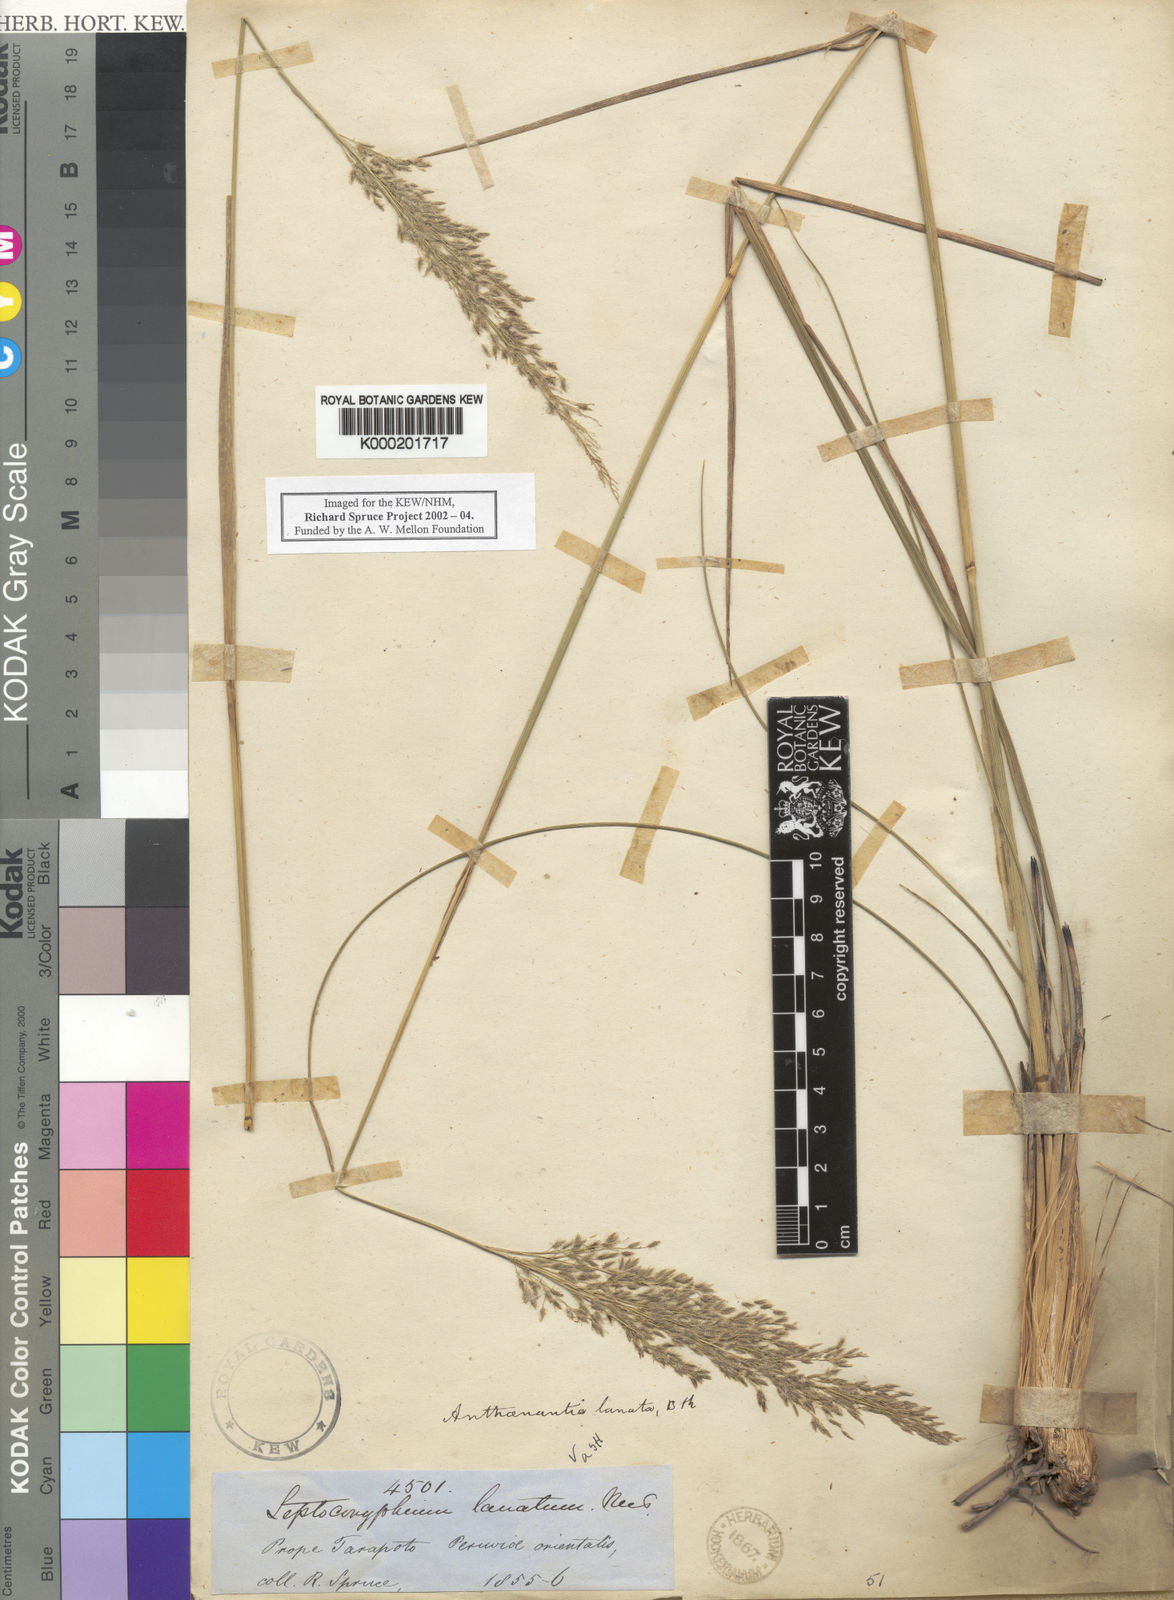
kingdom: Plantae
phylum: Tracheophyta
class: Liliopsida
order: Poales
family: Poaceae
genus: Anthenantia
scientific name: Anthenantia lanata
